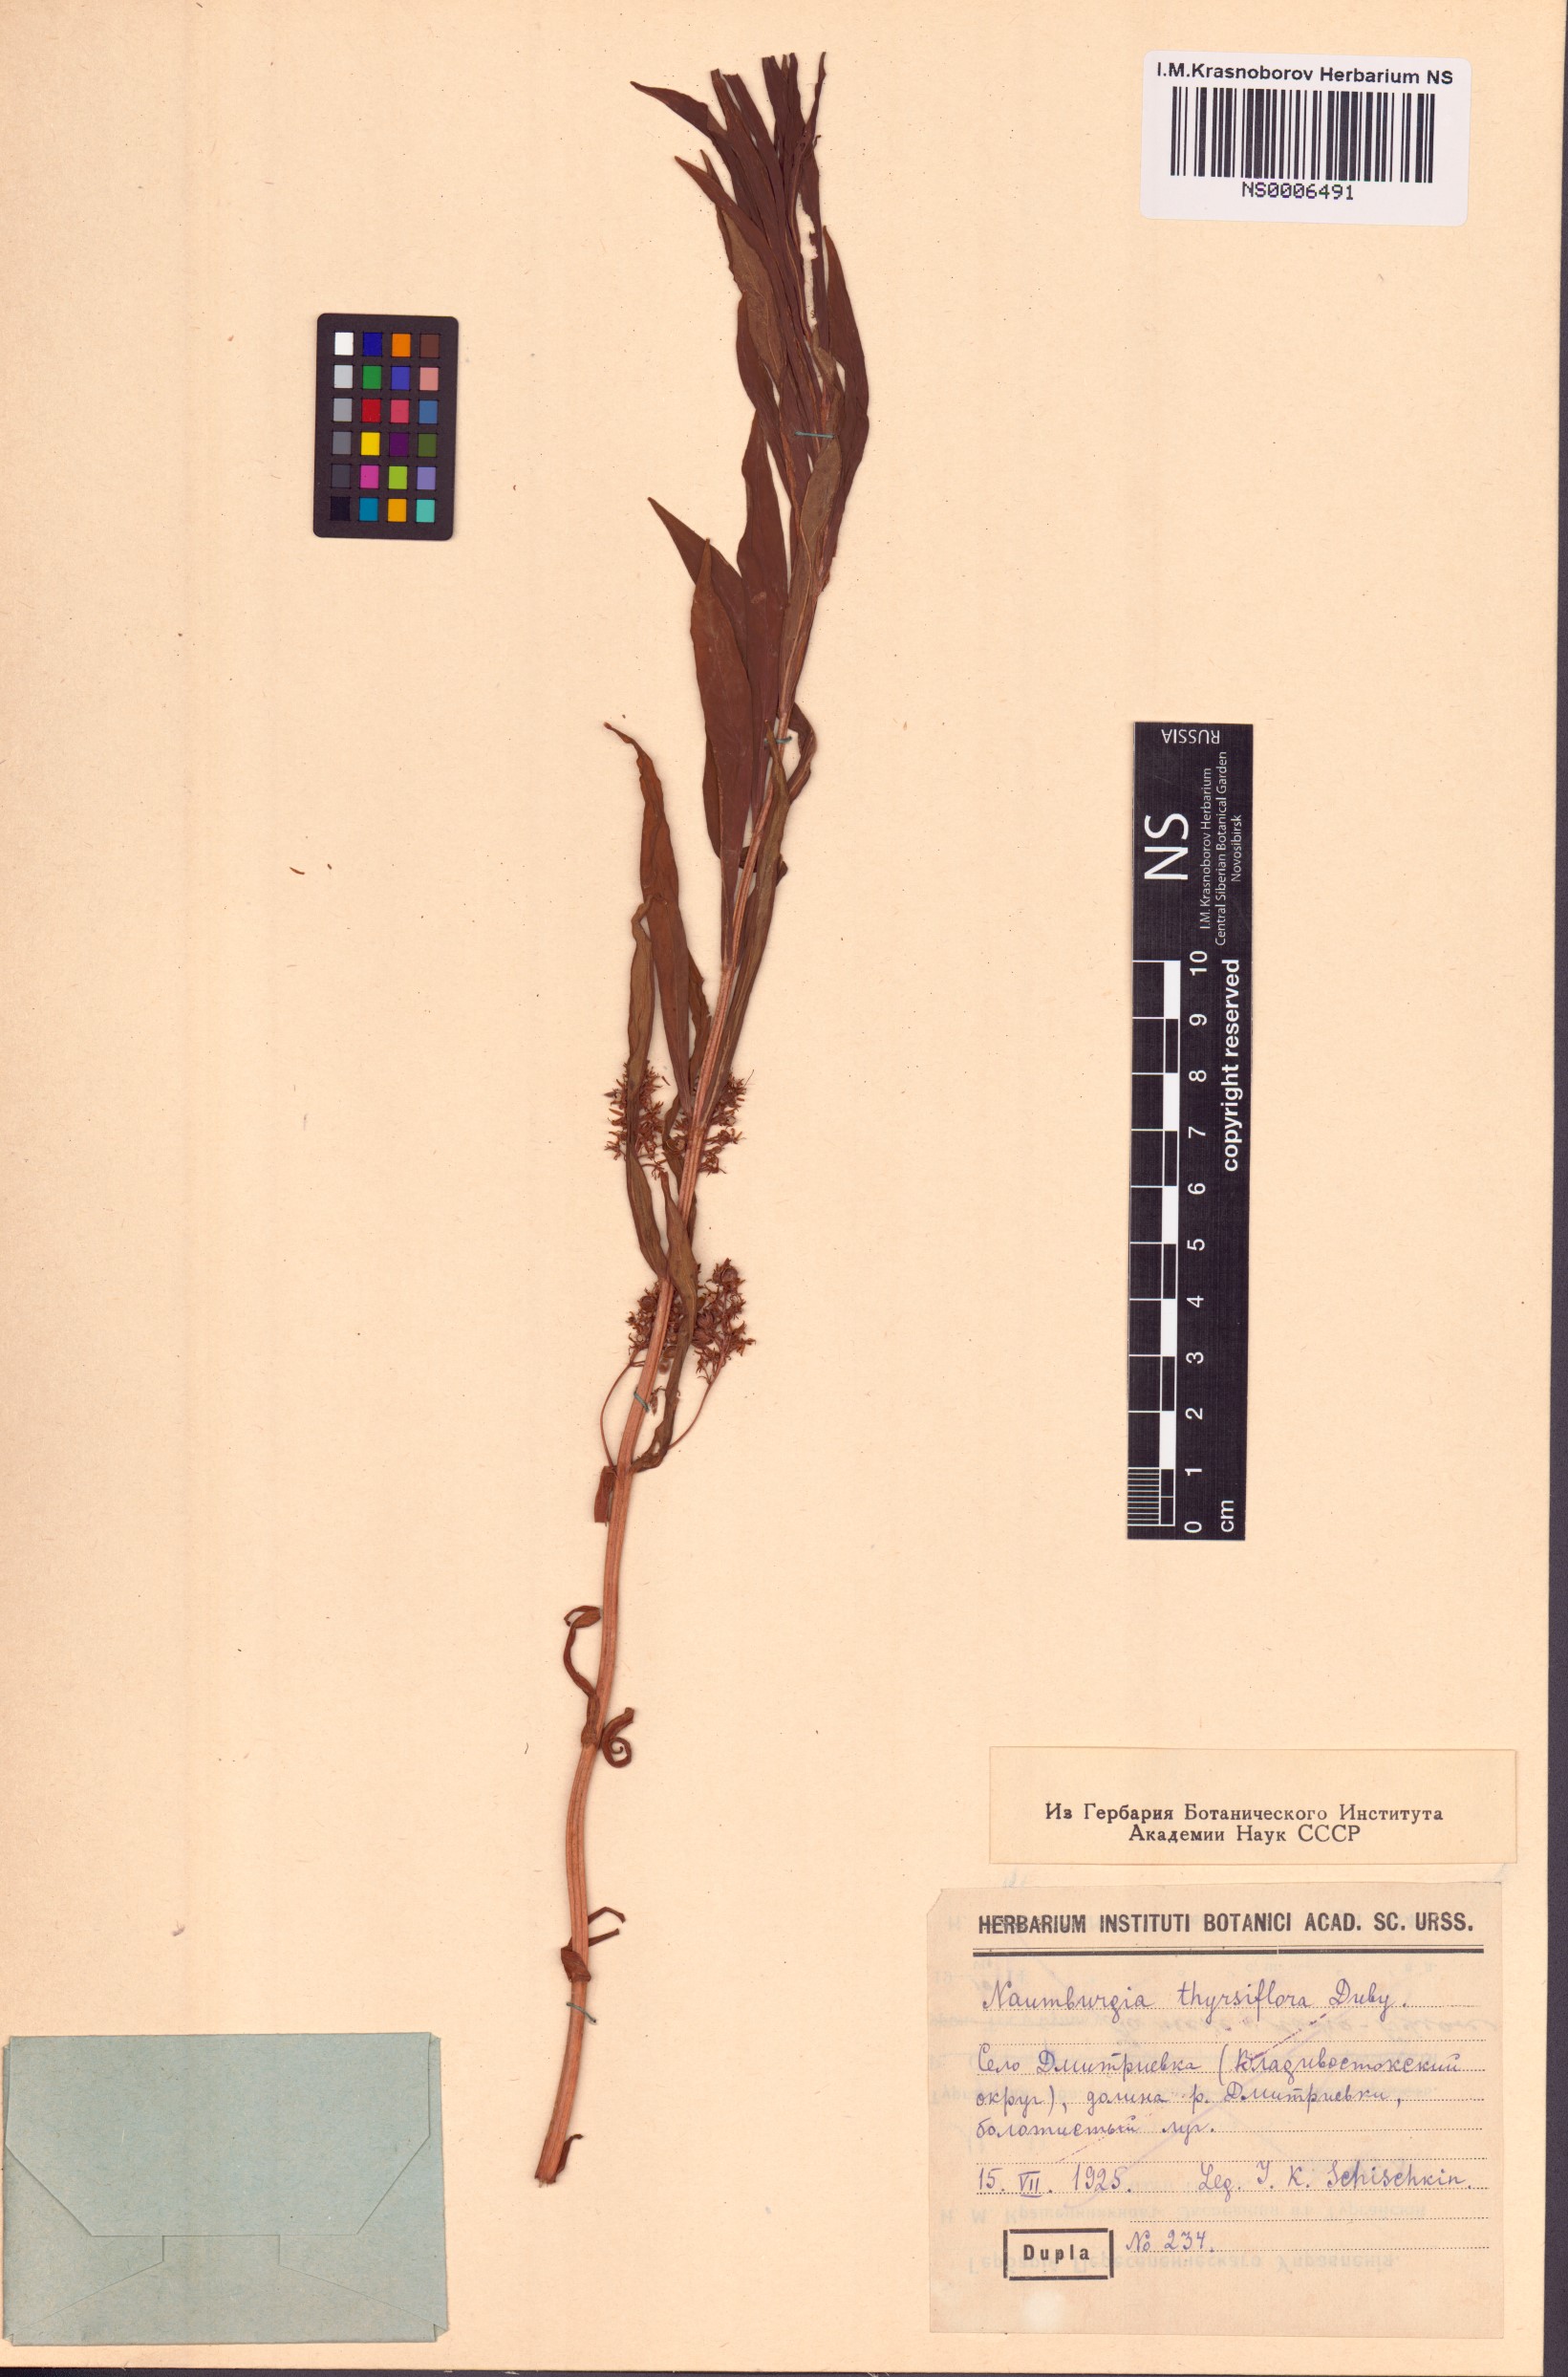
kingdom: Plantae
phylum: Tracheophyta
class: Magnoliopsida
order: Ericales
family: Primulaceae
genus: Lysimachia
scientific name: Lysimachia thyrsiflora
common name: Tufted loosestrife
